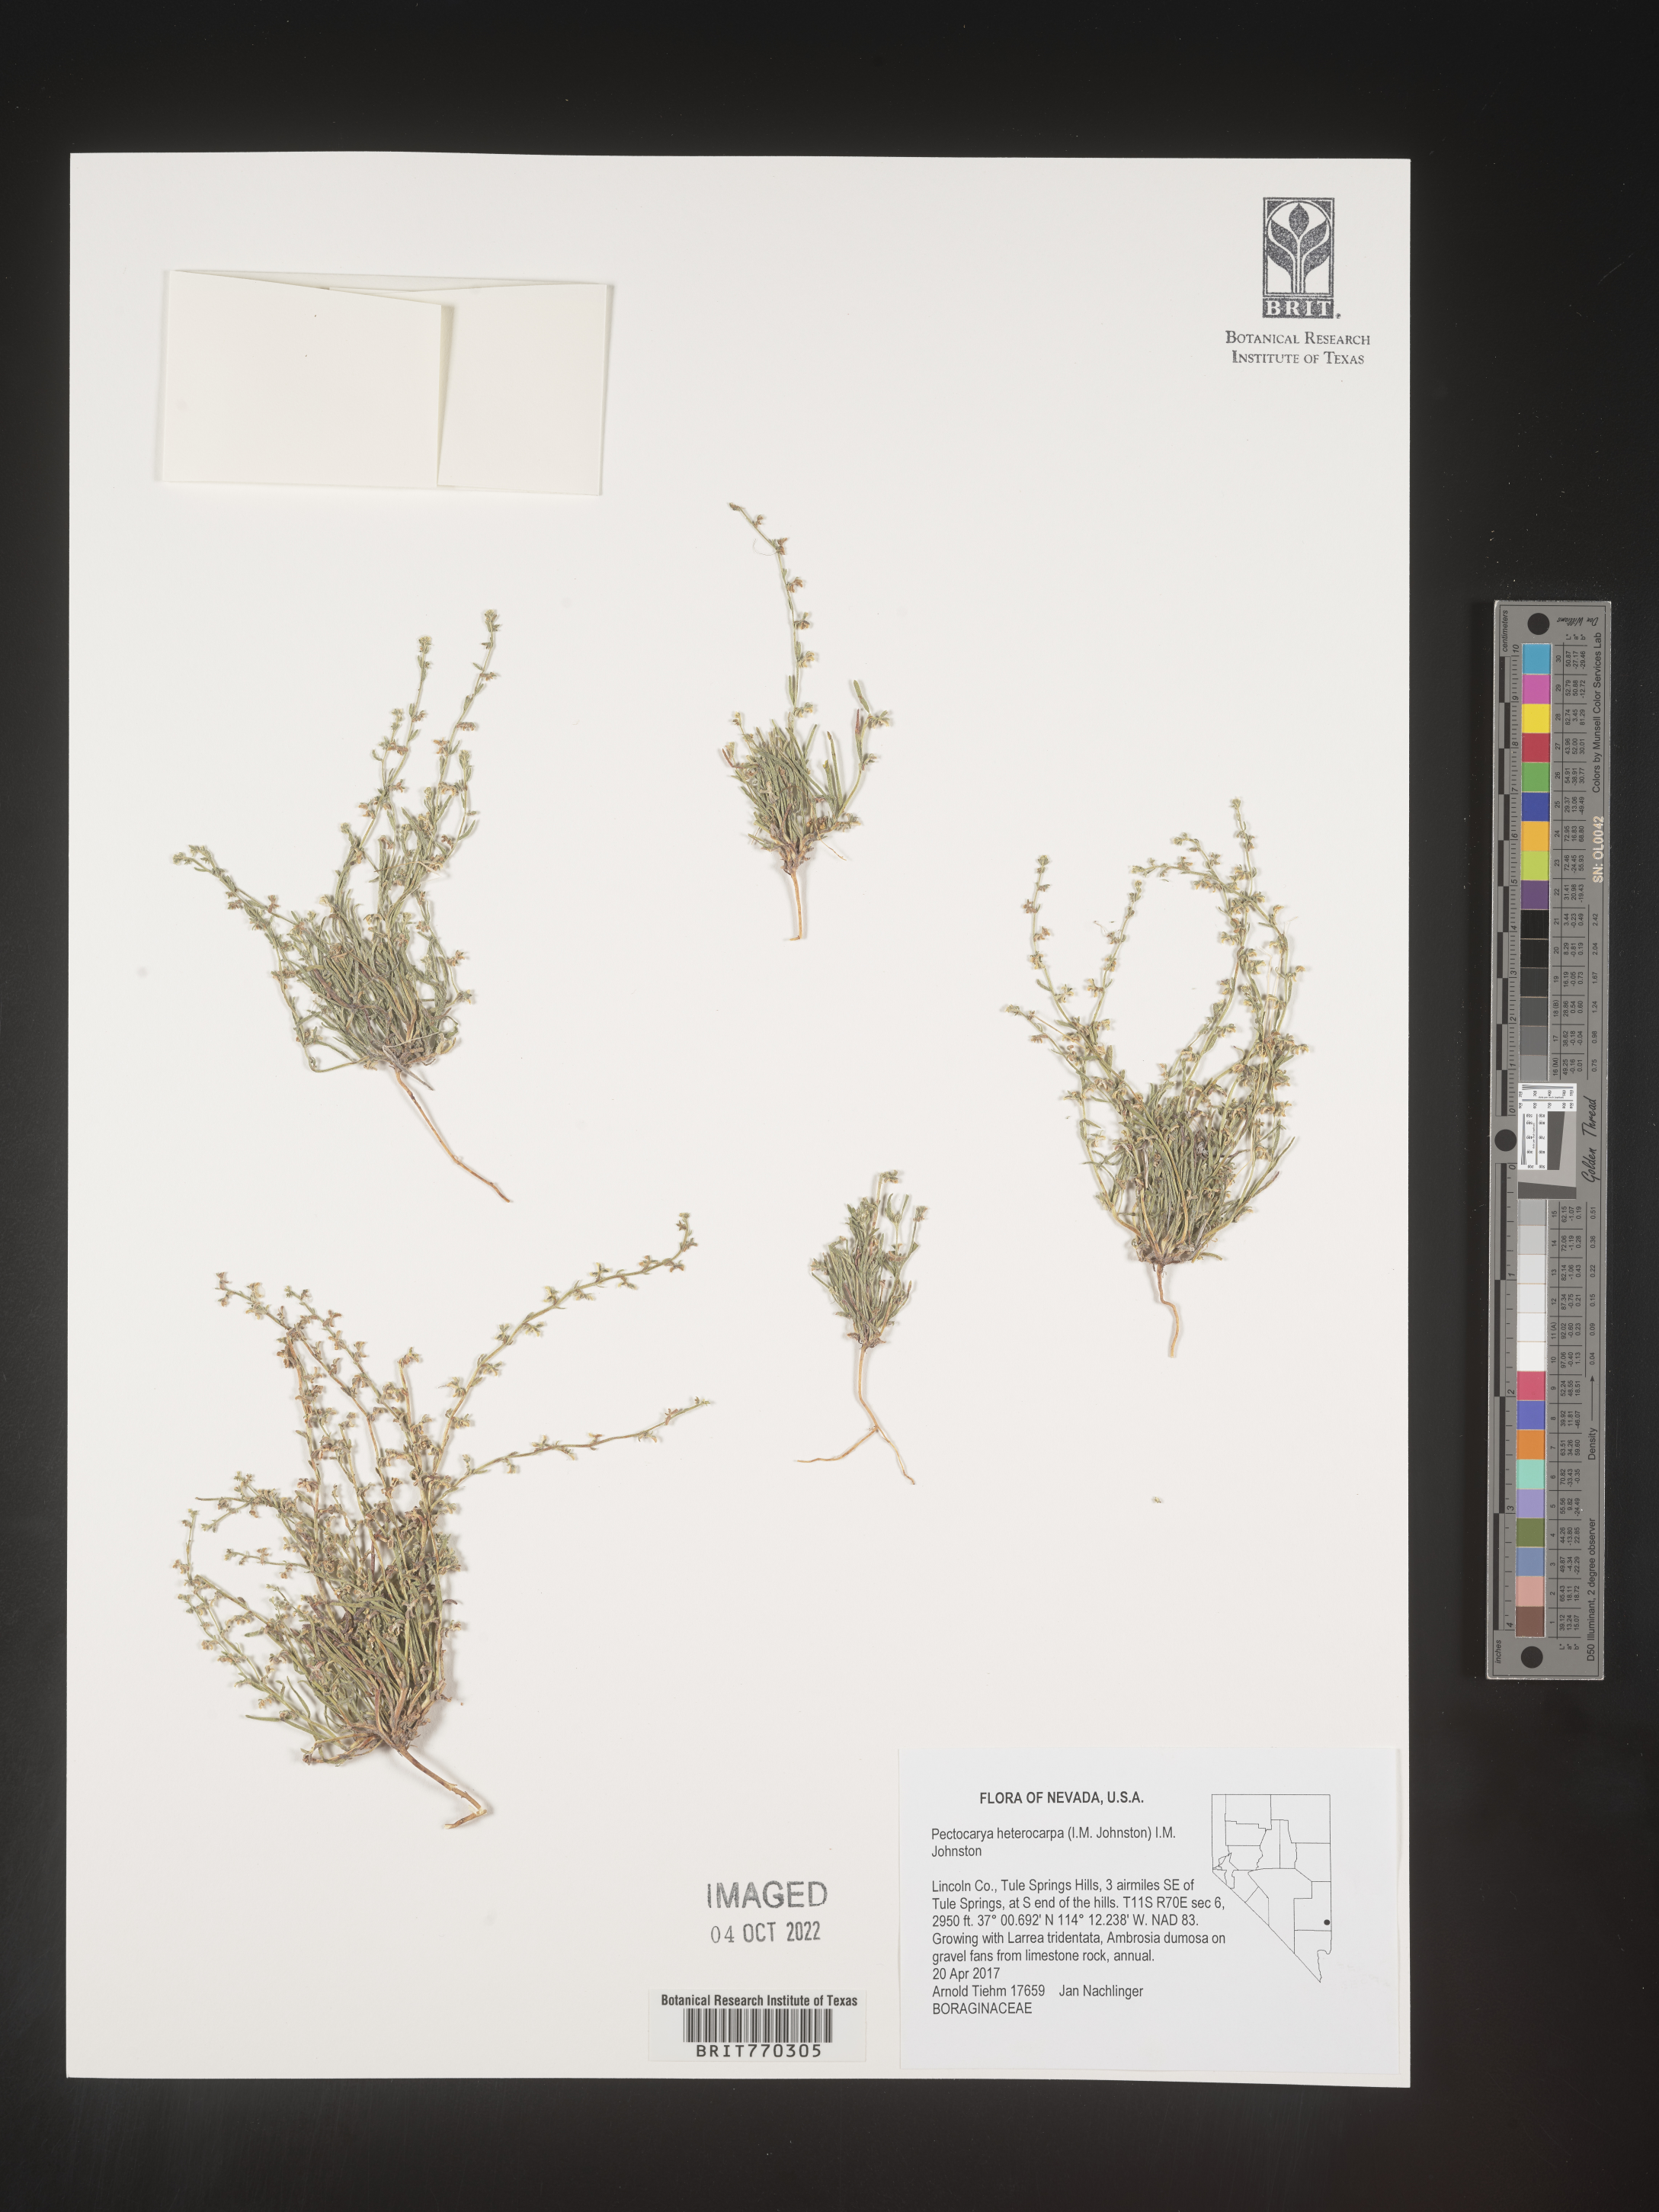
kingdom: Plantae
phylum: Tracheophyta
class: Magnoliopsida
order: Boraginales
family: Boraginaceae
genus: Pectocarya
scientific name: Pectocarya
